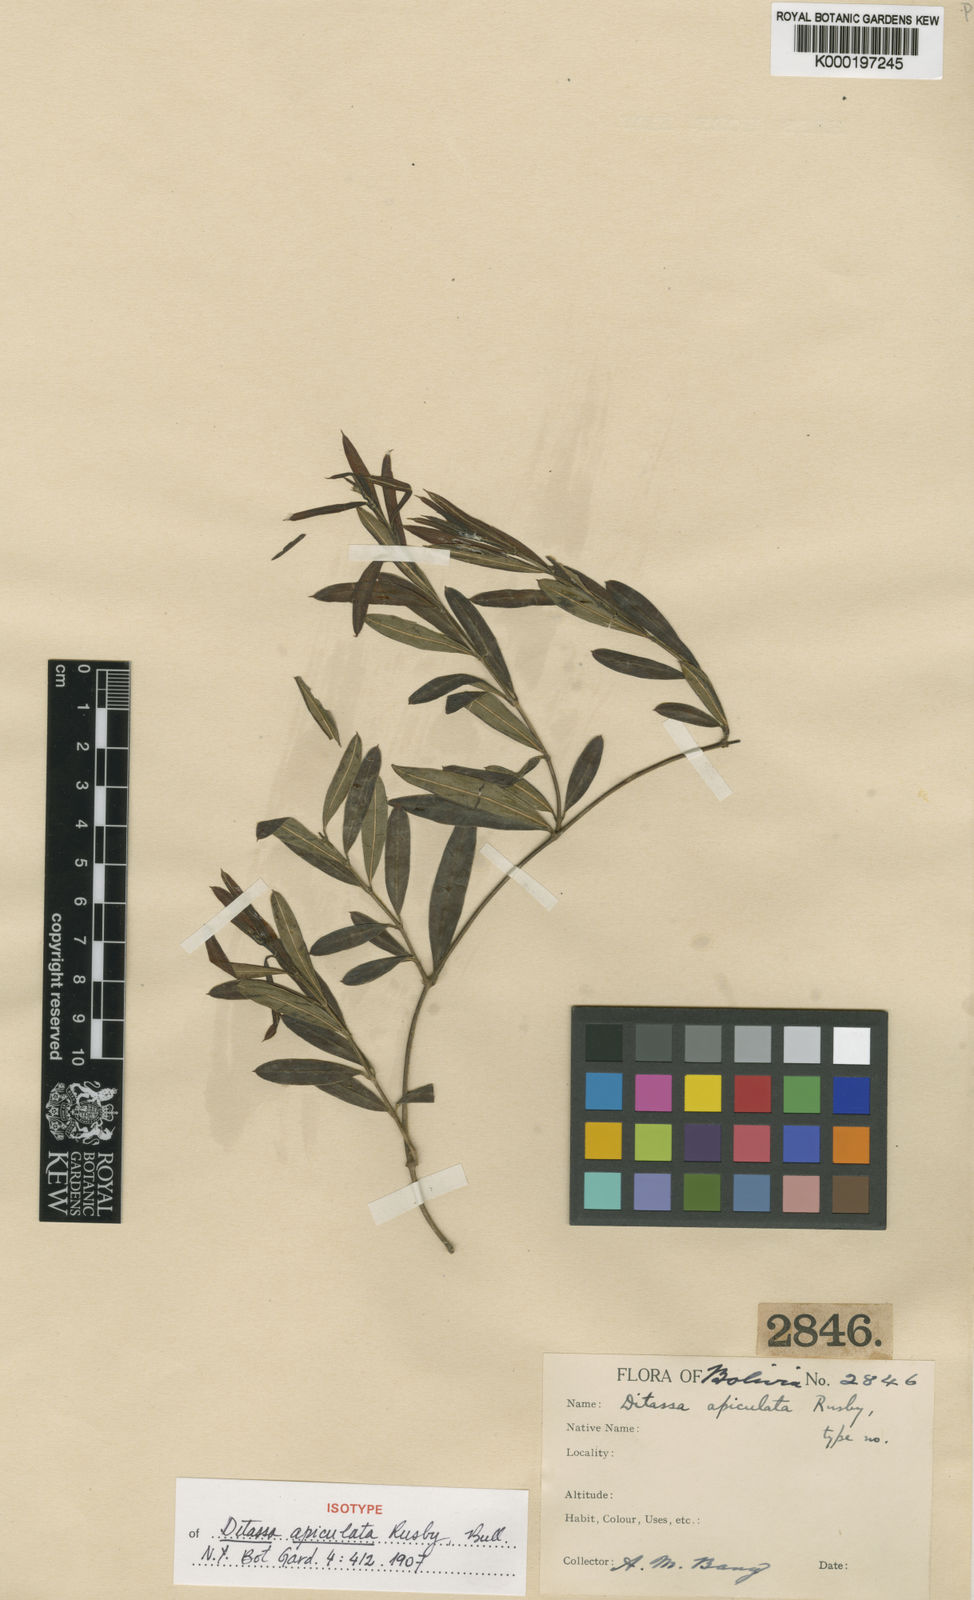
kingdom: Plantae
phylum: Tracheophyta
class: Magnoliopsida
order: Gentianales
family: Apocynaceae
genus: Ditassa
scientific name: Ditassa apiculata
